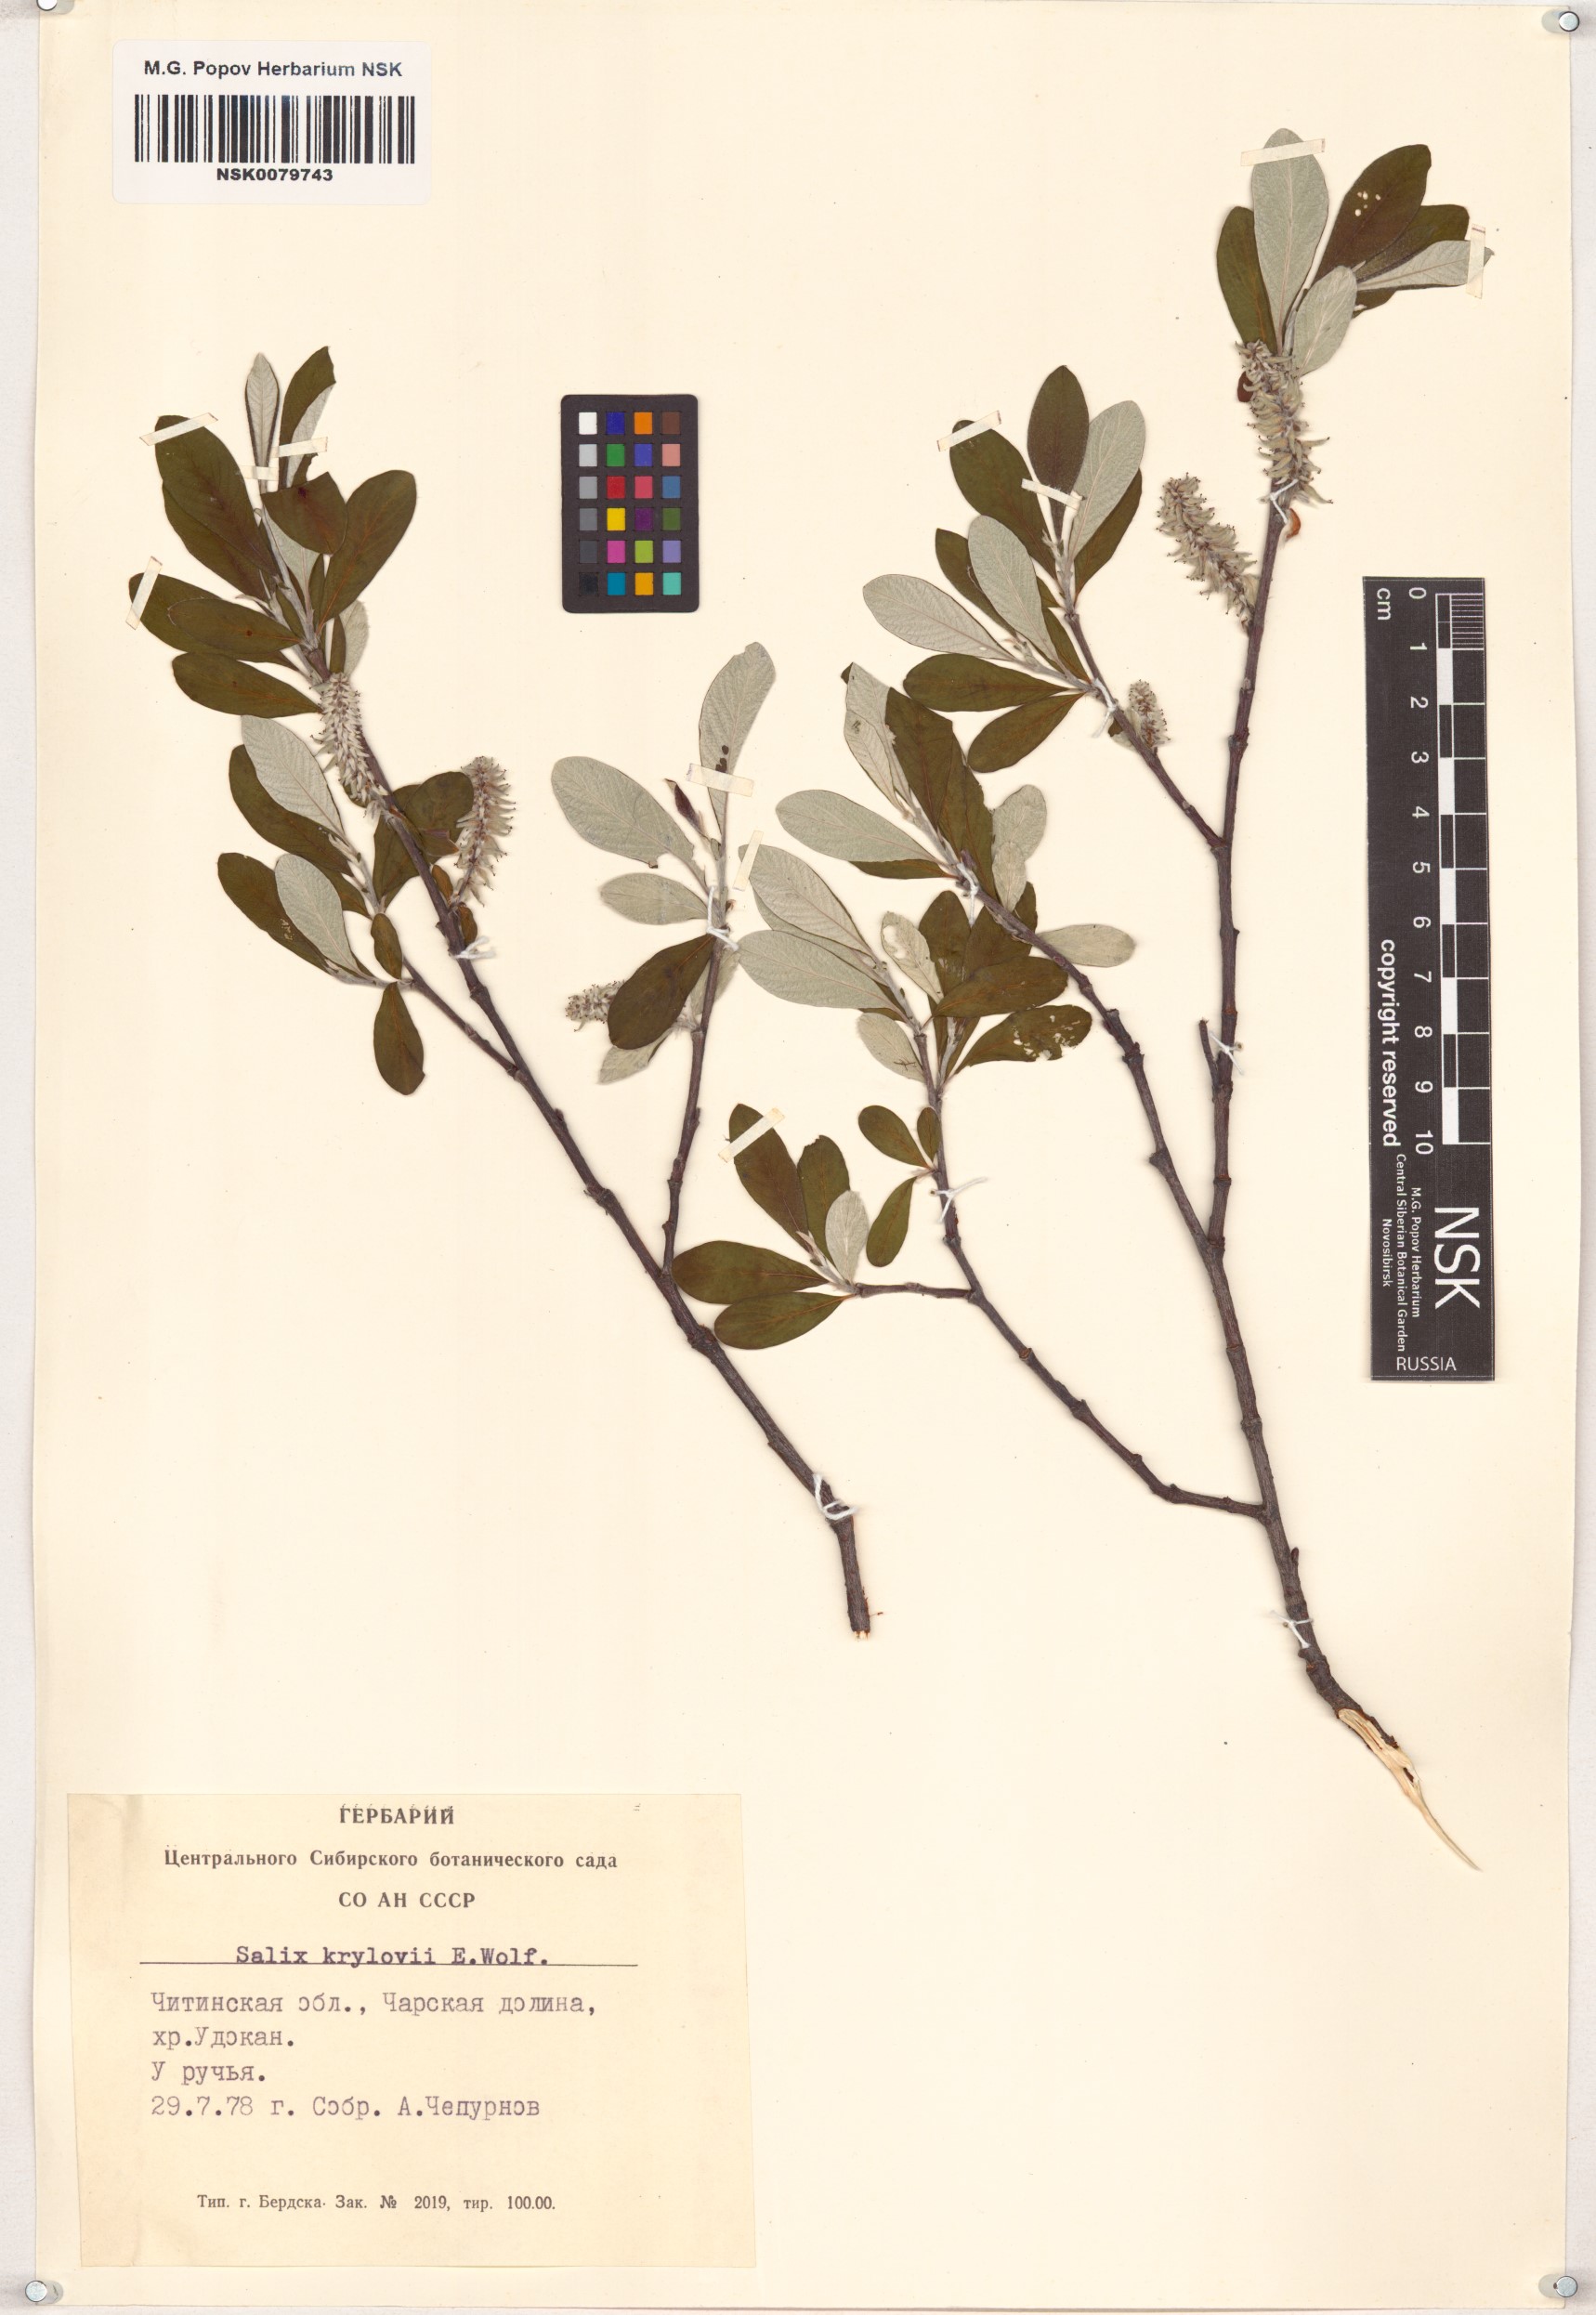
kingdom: Plantae
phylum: Tracheophyta
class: Magnoliopsida
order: Malpighiales
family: Salicaceae
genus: Salix
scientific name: Salix krylovii
